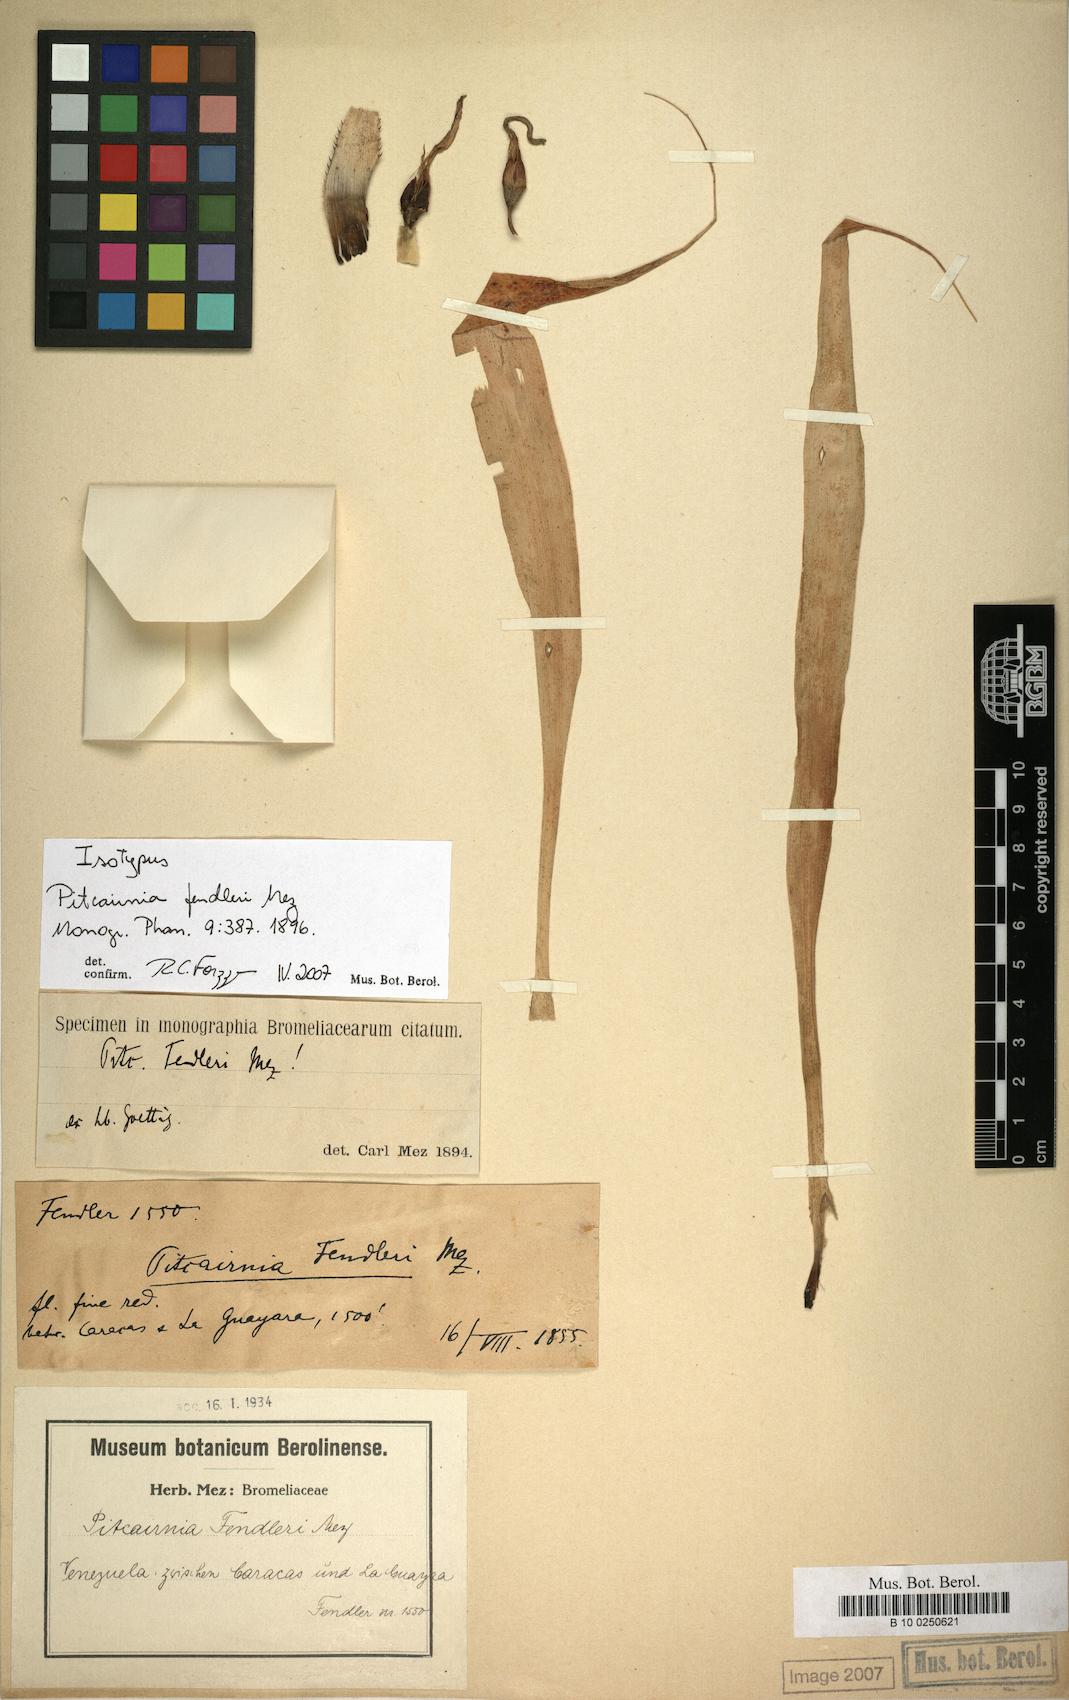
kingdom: Plantae
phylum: Tracheophyta
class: Liliopsida
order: Poales
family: Bromeliaceae
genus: Pitcairnia
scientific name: Pitcairnia fendleri
